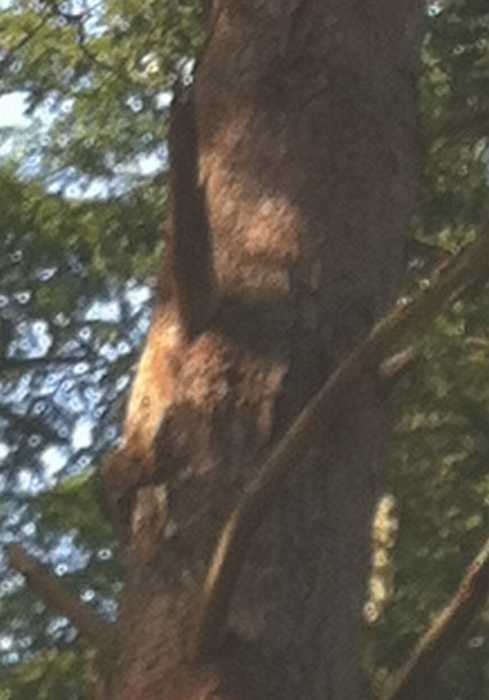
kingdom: Fungi
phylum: Basidiomycota
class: Agaricomycetes
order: Hymenochaetales
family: Hymenochaetaceae
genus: Porodaedalea
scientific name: Porodaedalea pini
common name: fyrre-ildporesvamp
